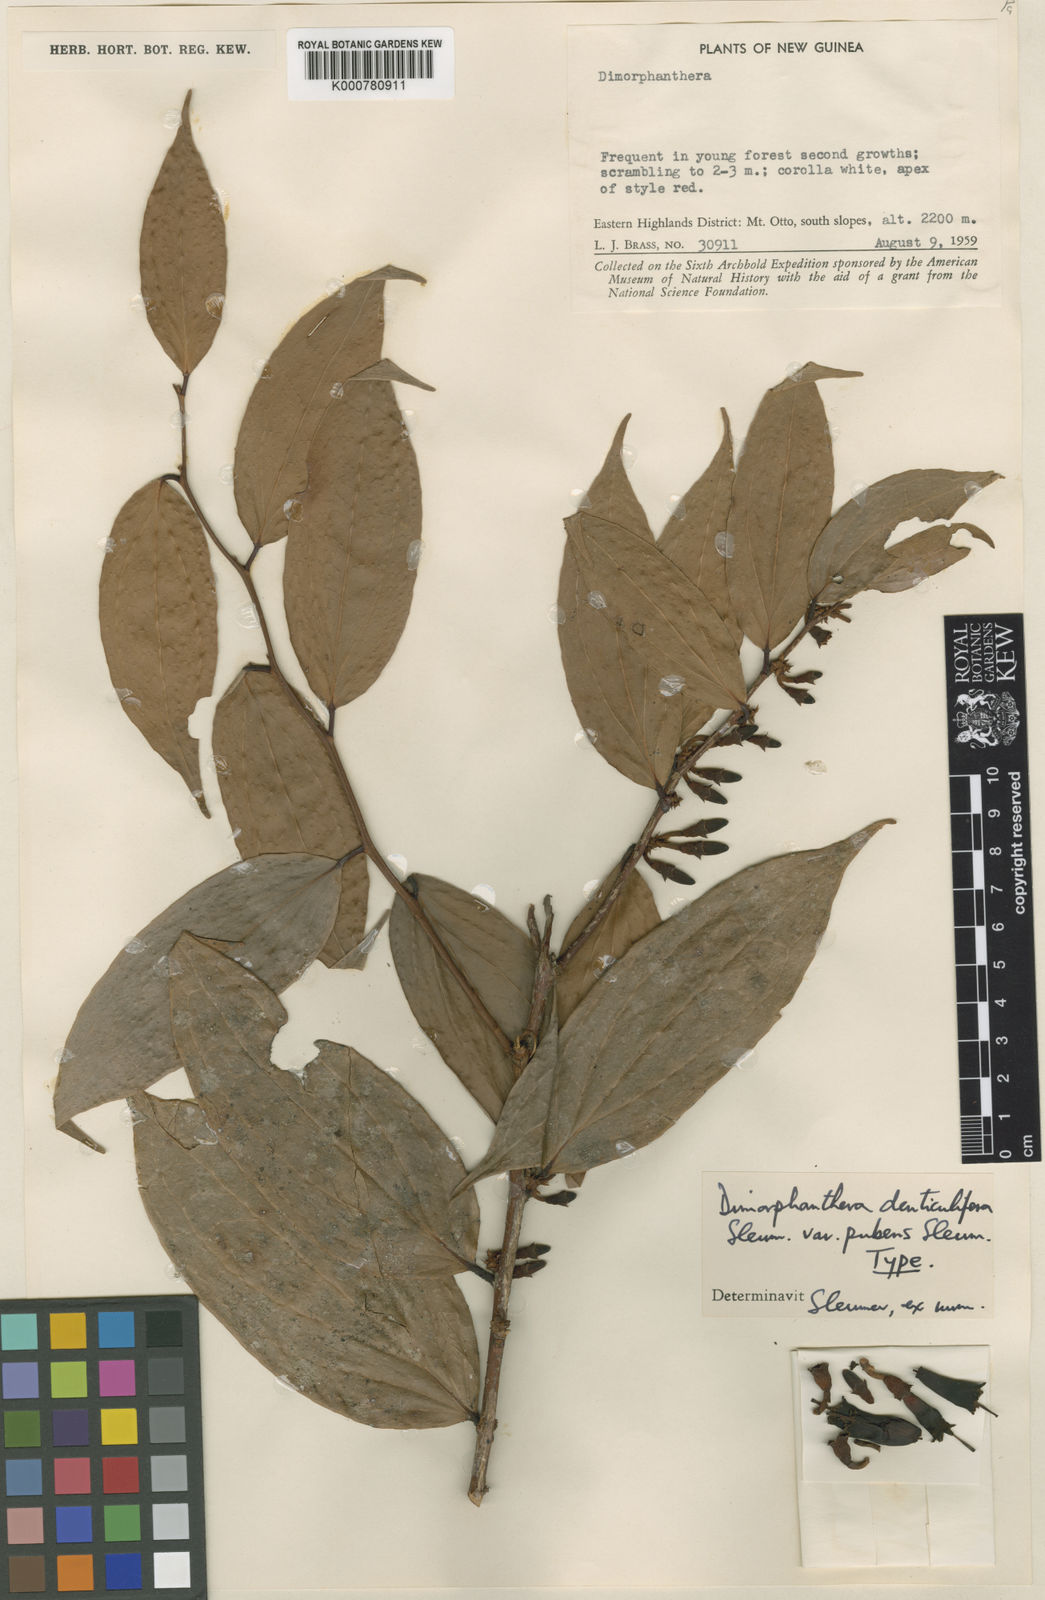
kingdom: Plantae
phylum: Tracheophyta
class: Magnoliopsida
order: Ericales
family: Ericaceae
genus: Dimorphanthera
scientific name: Dimorphanthera denticulifera
